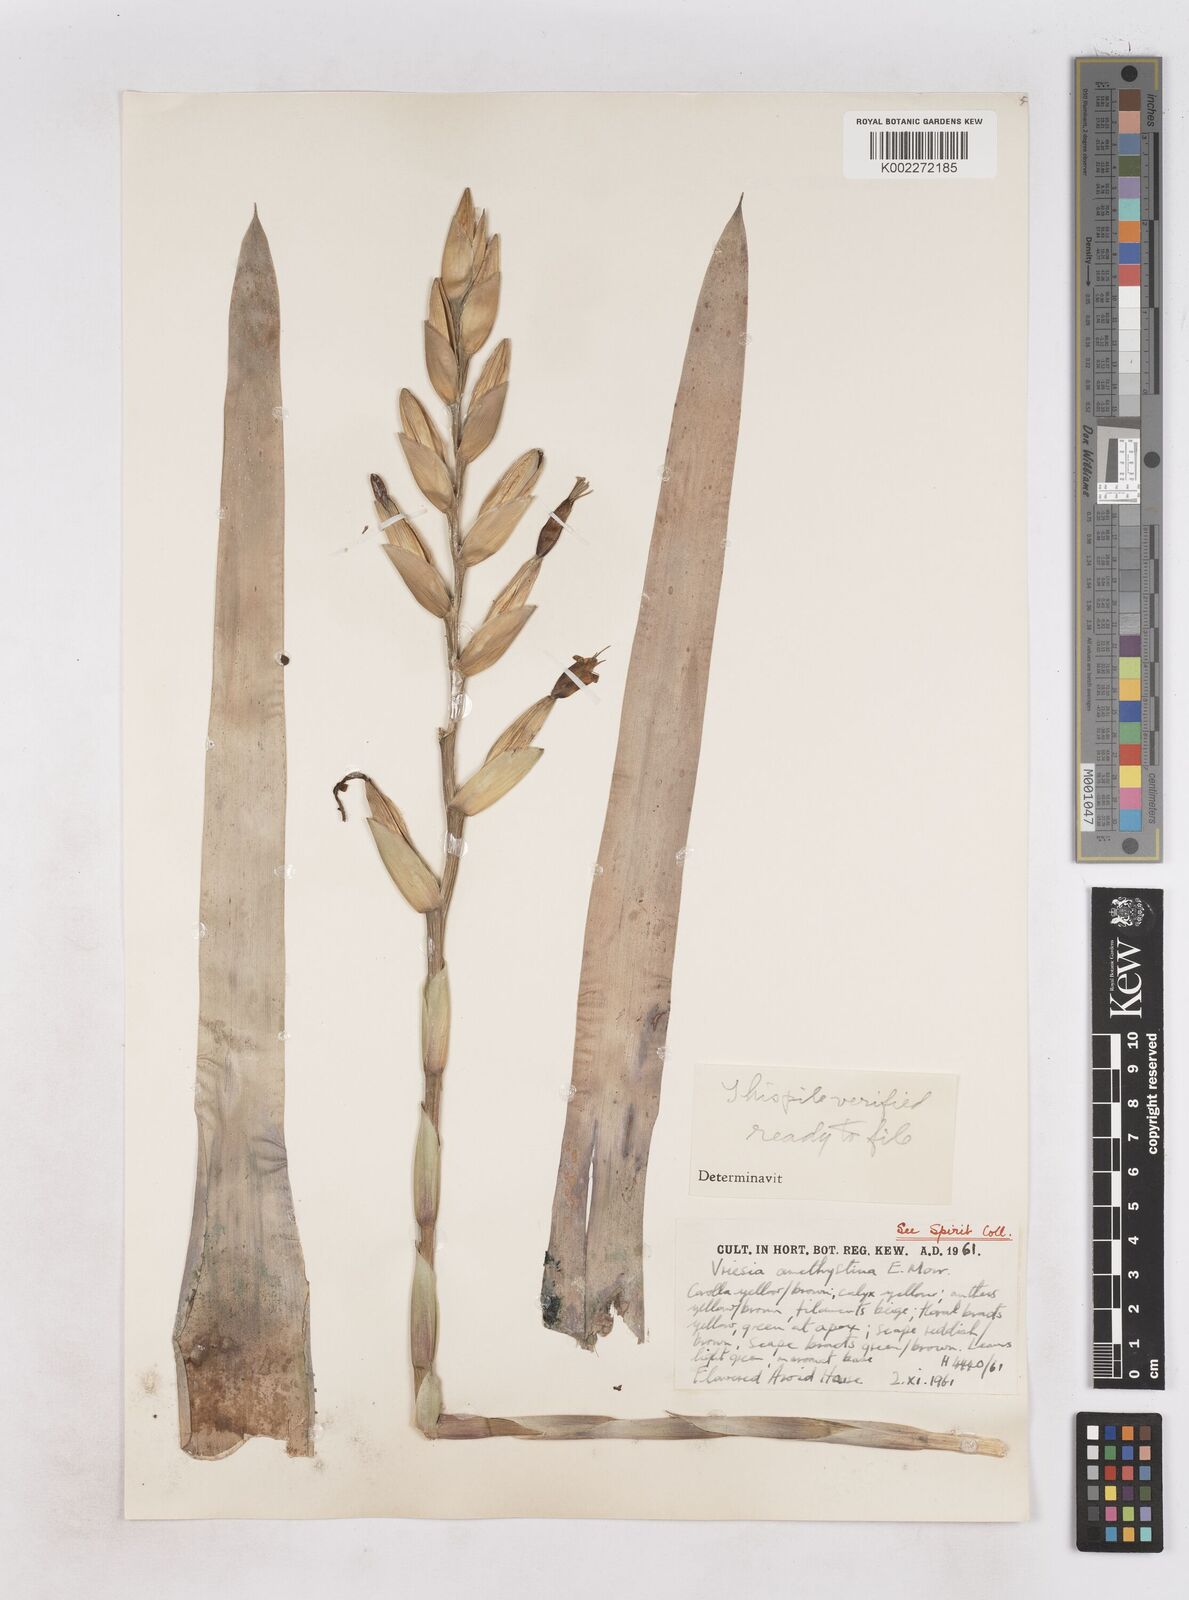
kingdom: Plantae
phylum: Tracheophyta
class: Liliopsida
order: Poales
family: Bromeliaceae
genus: Vriesea
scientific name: Vriesea amethystina
